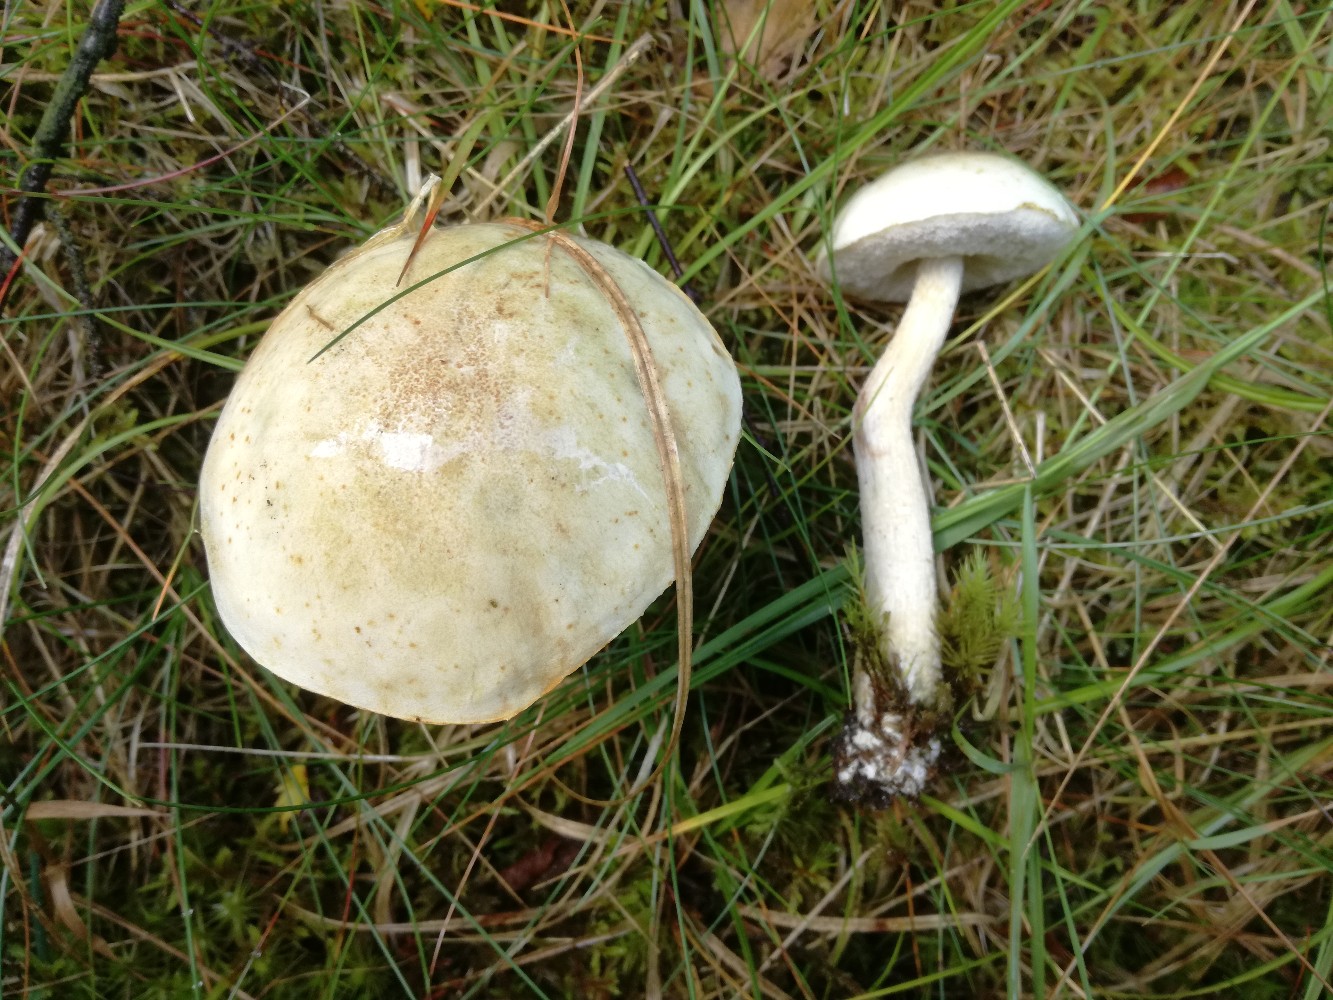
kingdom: Fungi
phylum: Basidiomycota
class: Agaricomycetes
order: Boletales
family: Boletaceae
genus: Leccinum
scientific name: Leccinum scabrum
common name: hvid skælrørhat
